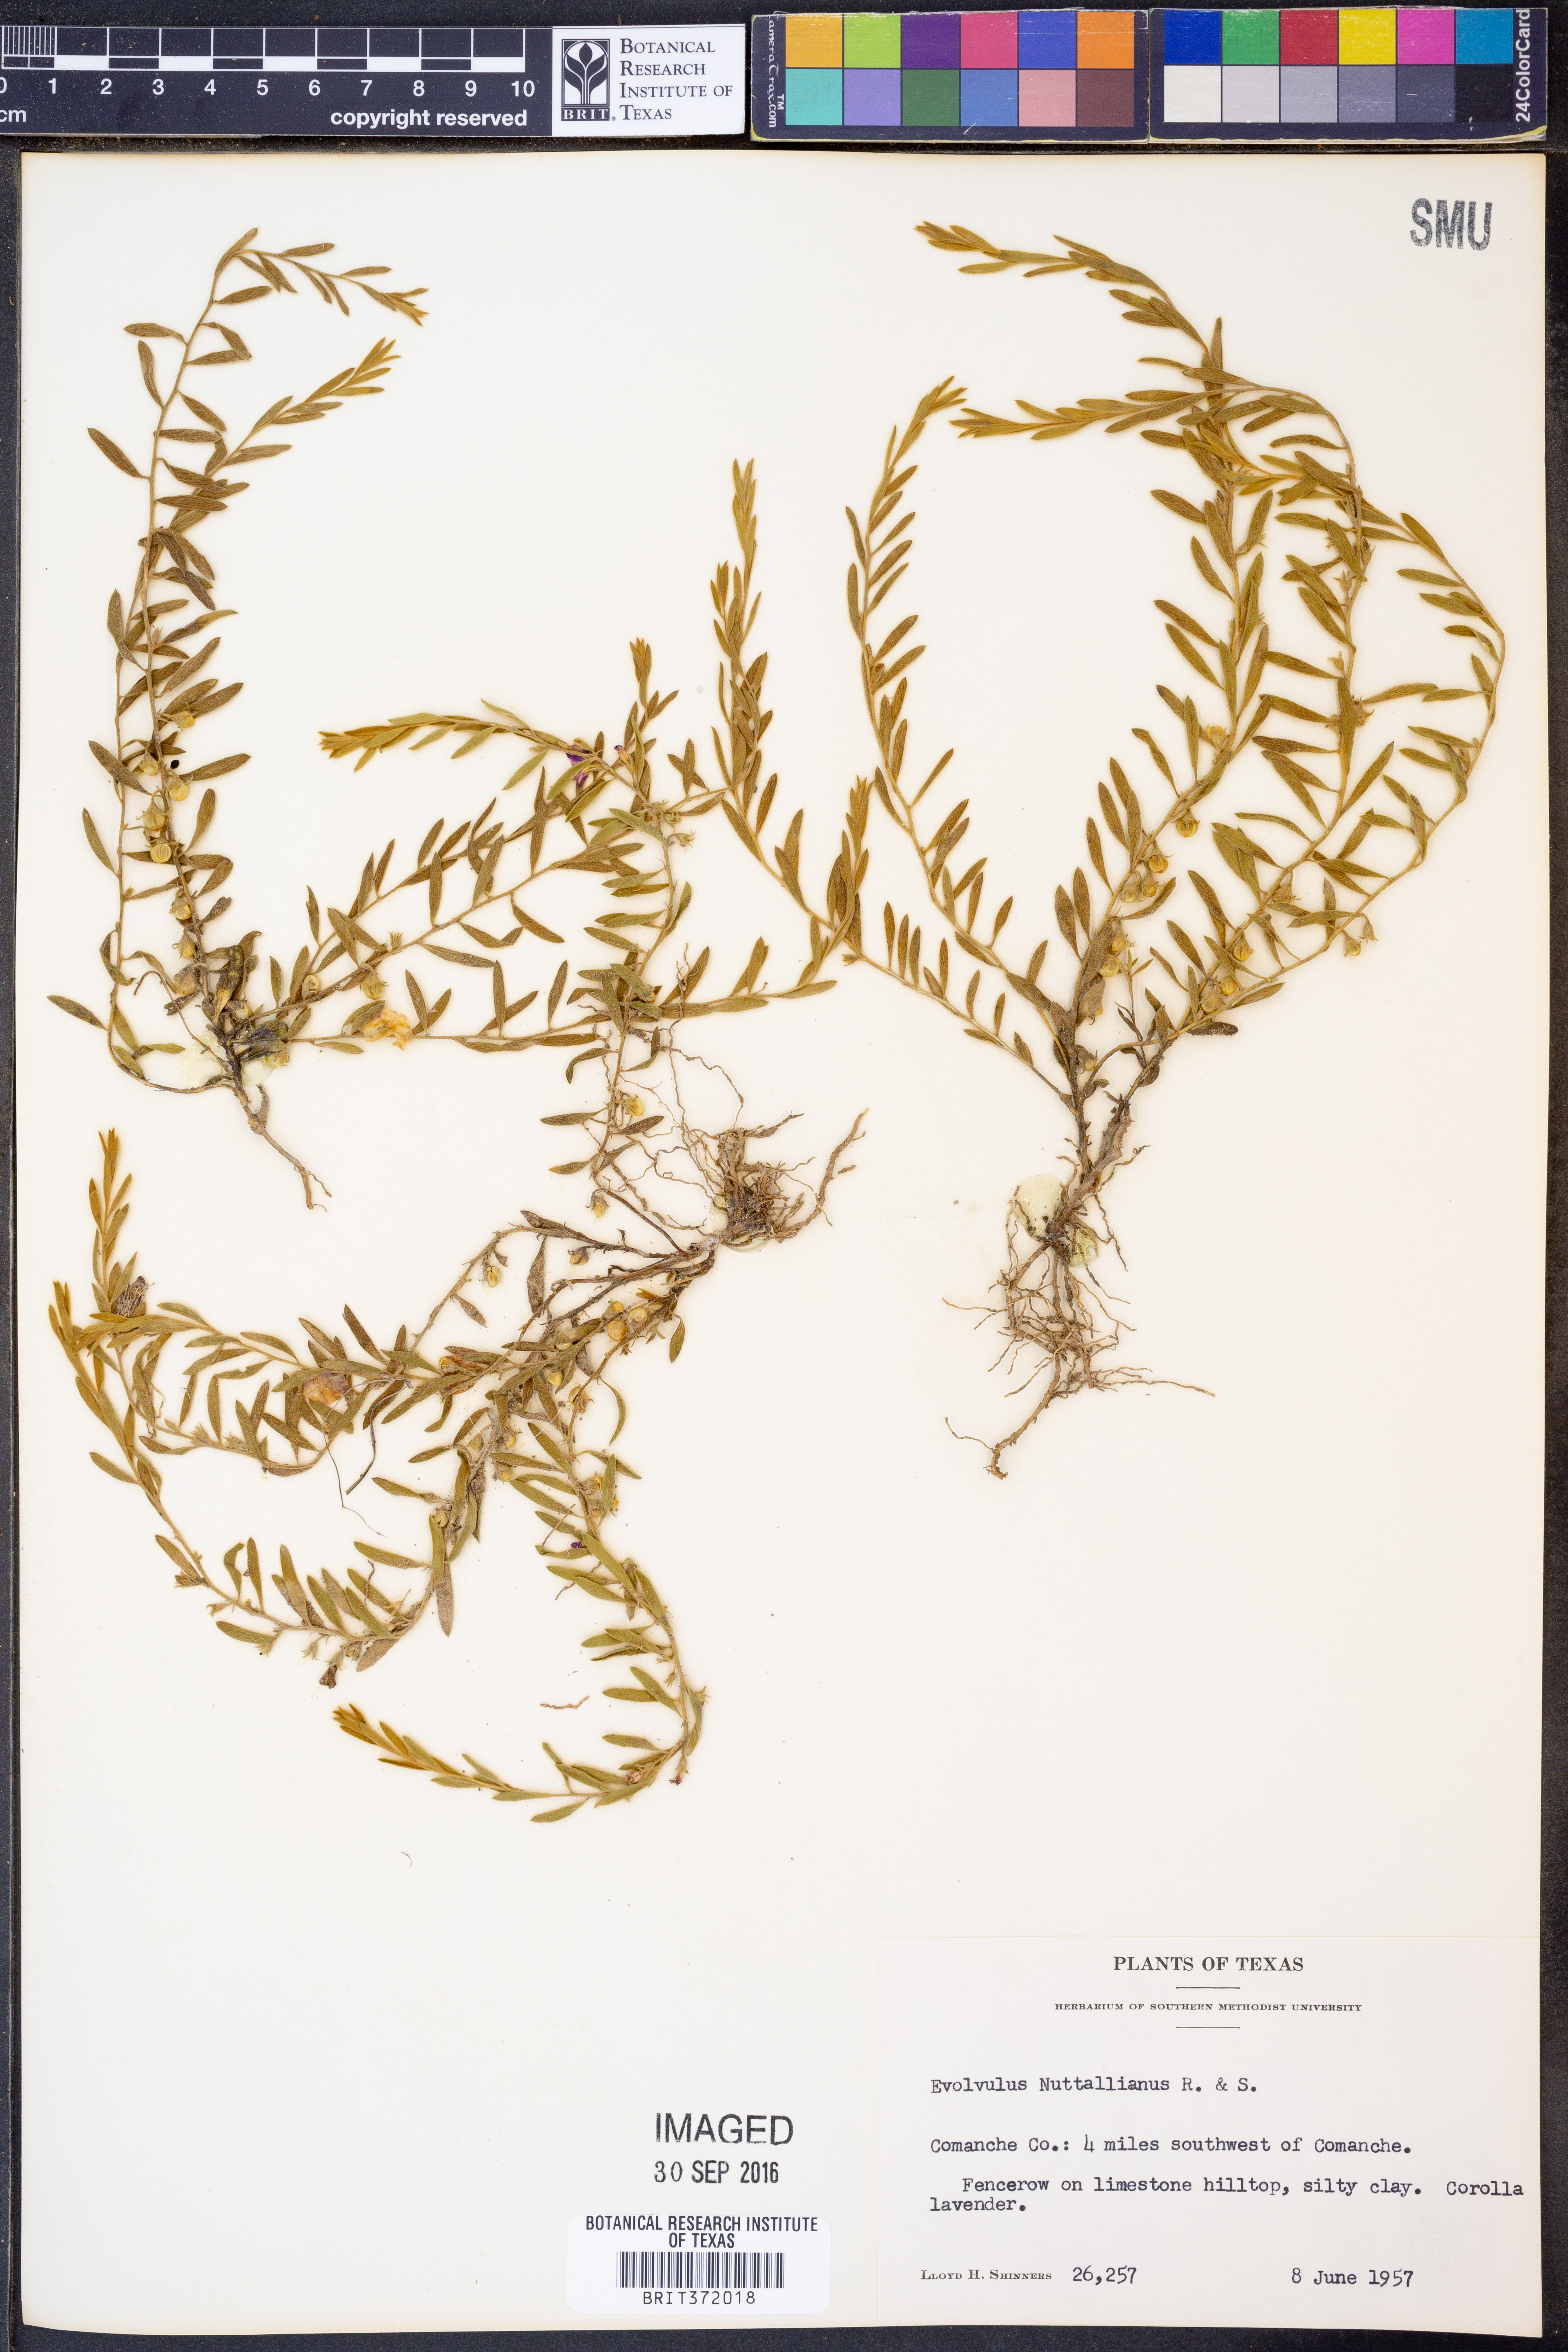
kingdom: Plantae
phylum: Tracheophyta
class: Magnoliopsida
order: Solanales
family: Convolvulaceae
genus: Evolvulus
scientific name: Evolvulus nuttallianus
